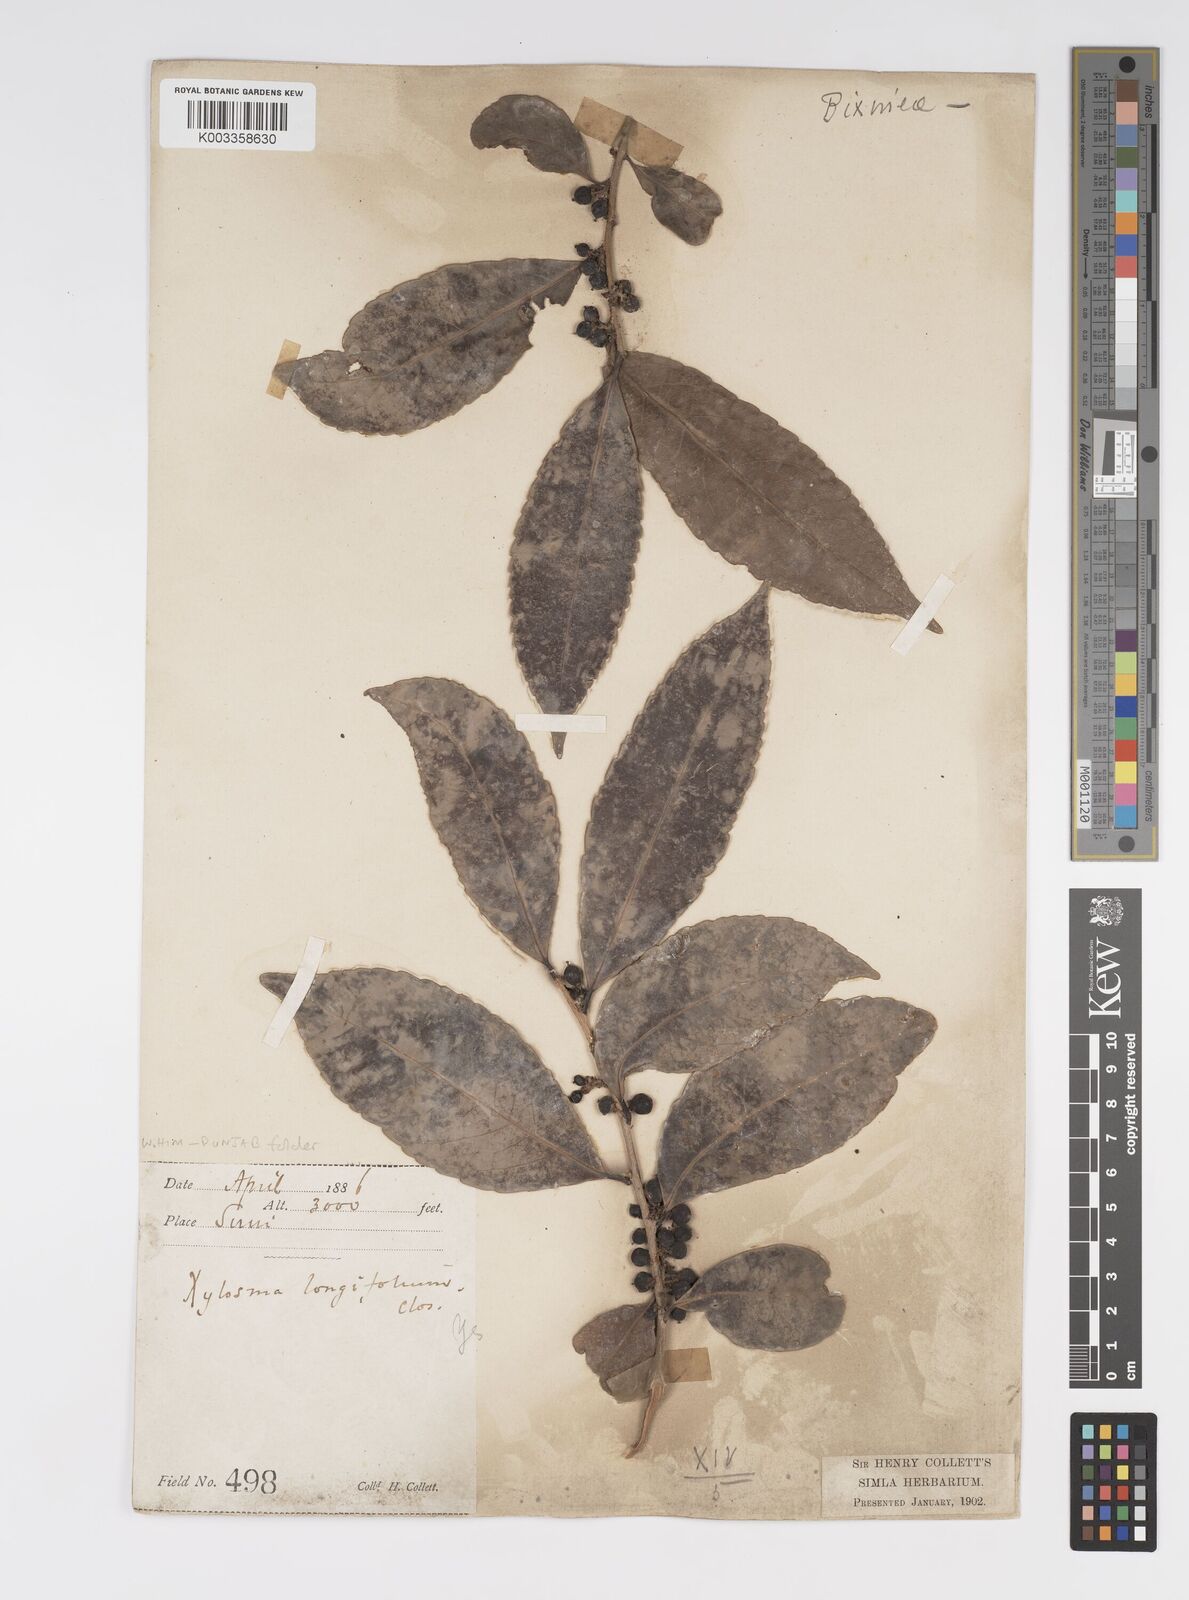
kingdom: Plantae
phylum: Tracheophyta
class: Magnoliopsida
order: Malpighiales
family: Salicaceae
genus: Xylosma
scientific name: Xylosma longifolia
